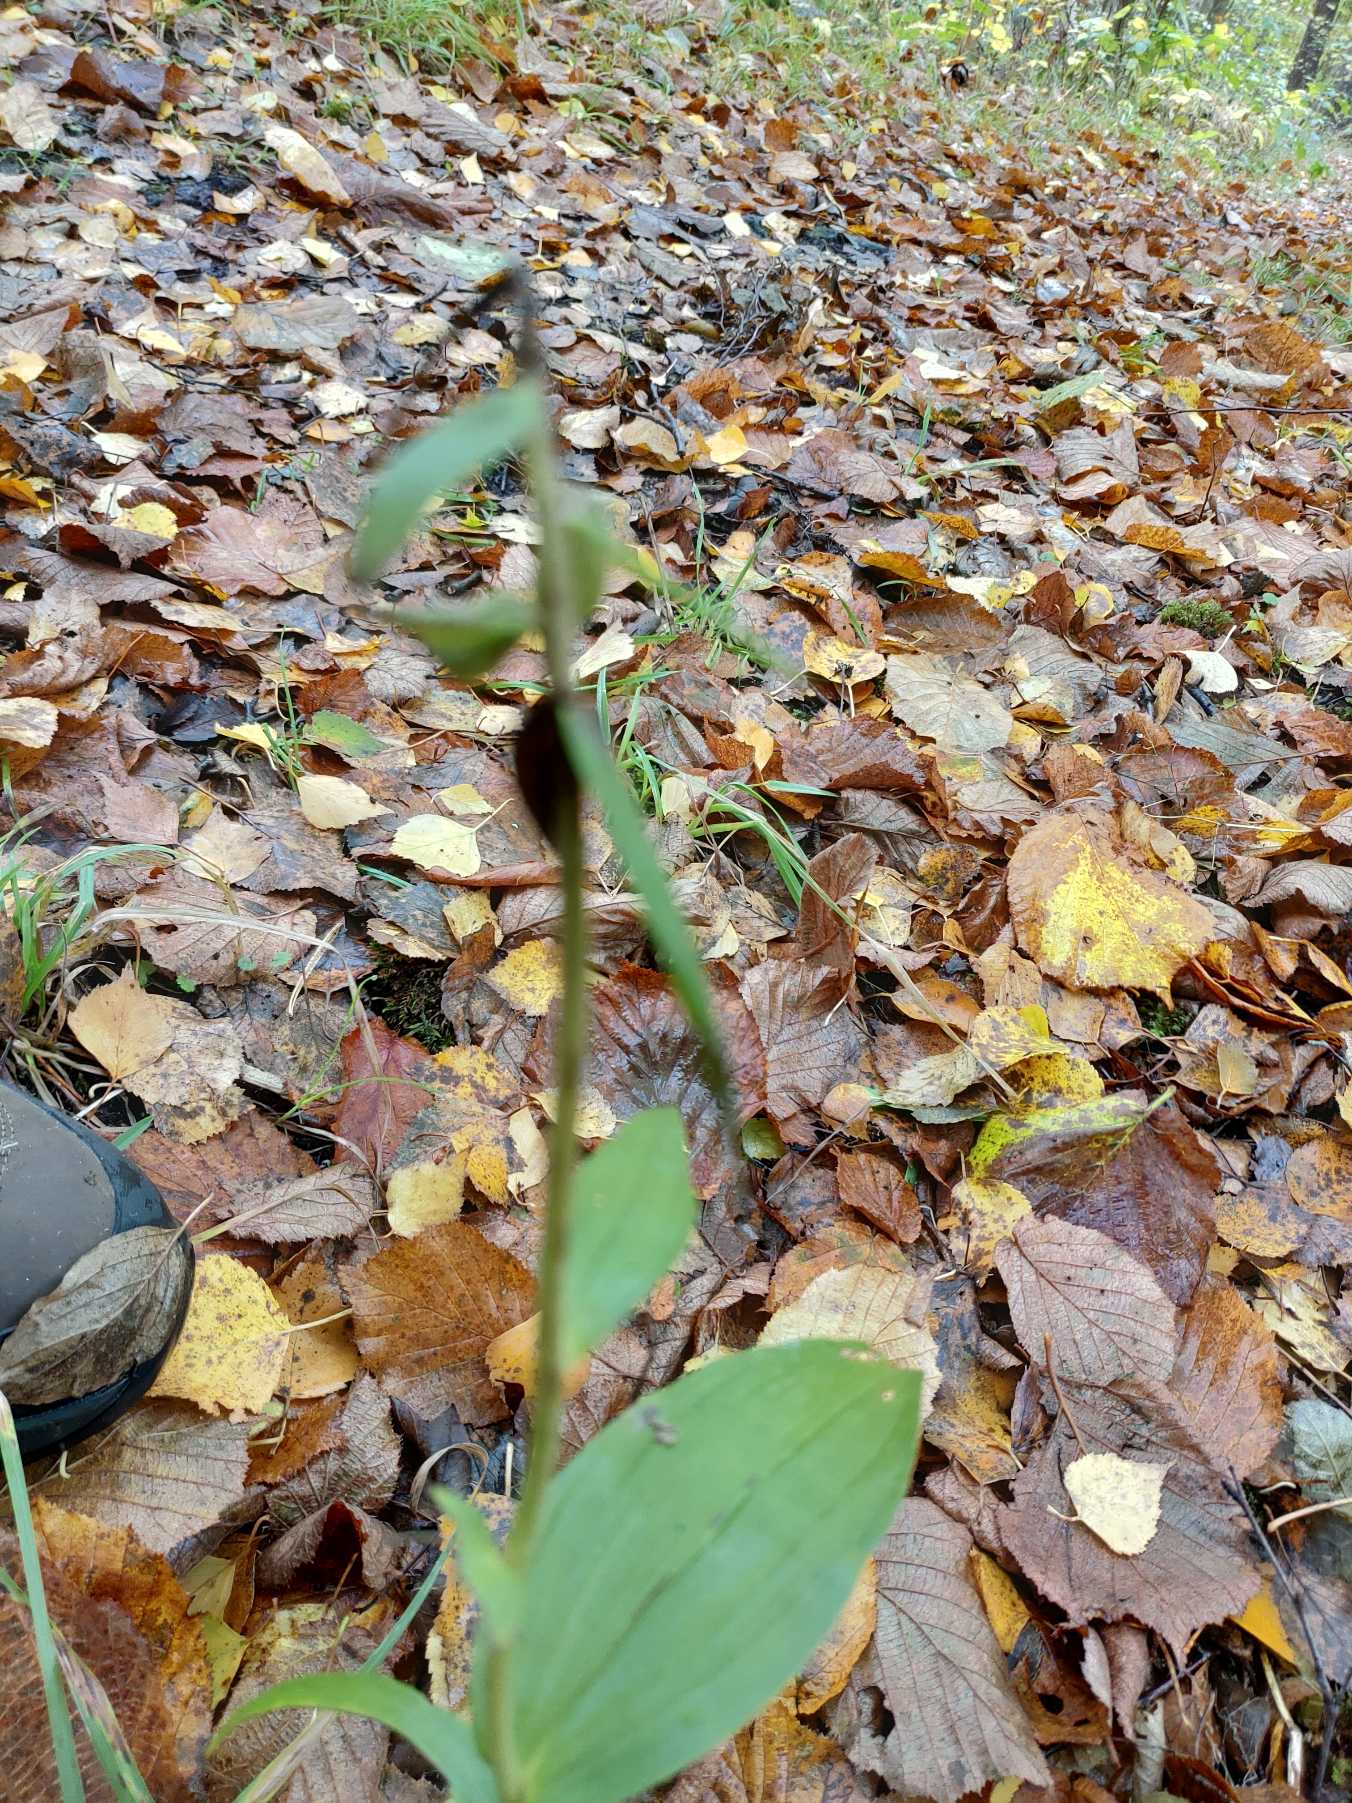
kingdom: Plantae
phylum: Tracheophyta
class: Liliopsida
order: Asparagales
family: Orchidaceae
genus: Epipactis
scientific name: Epipactis helleborine
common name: Skov-hullæbe
